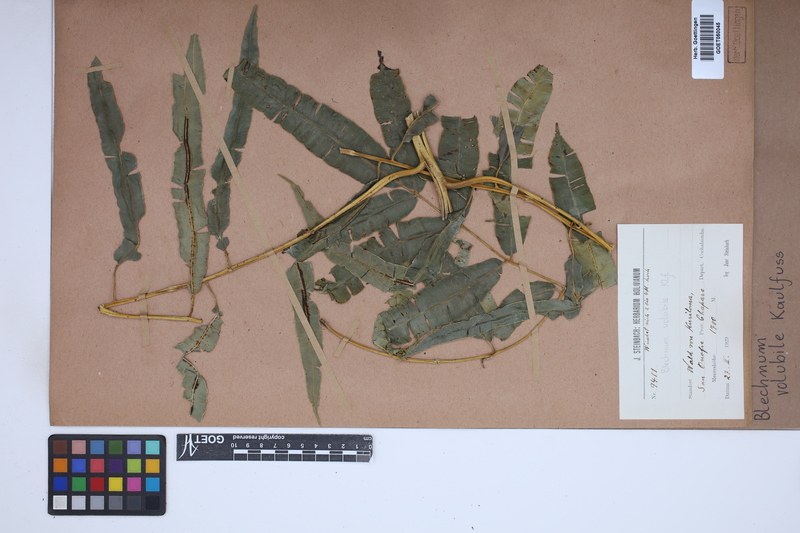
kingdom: Plantae
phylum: Tracheophyta
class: Polypodiopsida
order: Polypodiales
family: Blechnaceae
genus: Salpichlaena
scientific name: Salpichlaena volubilis
